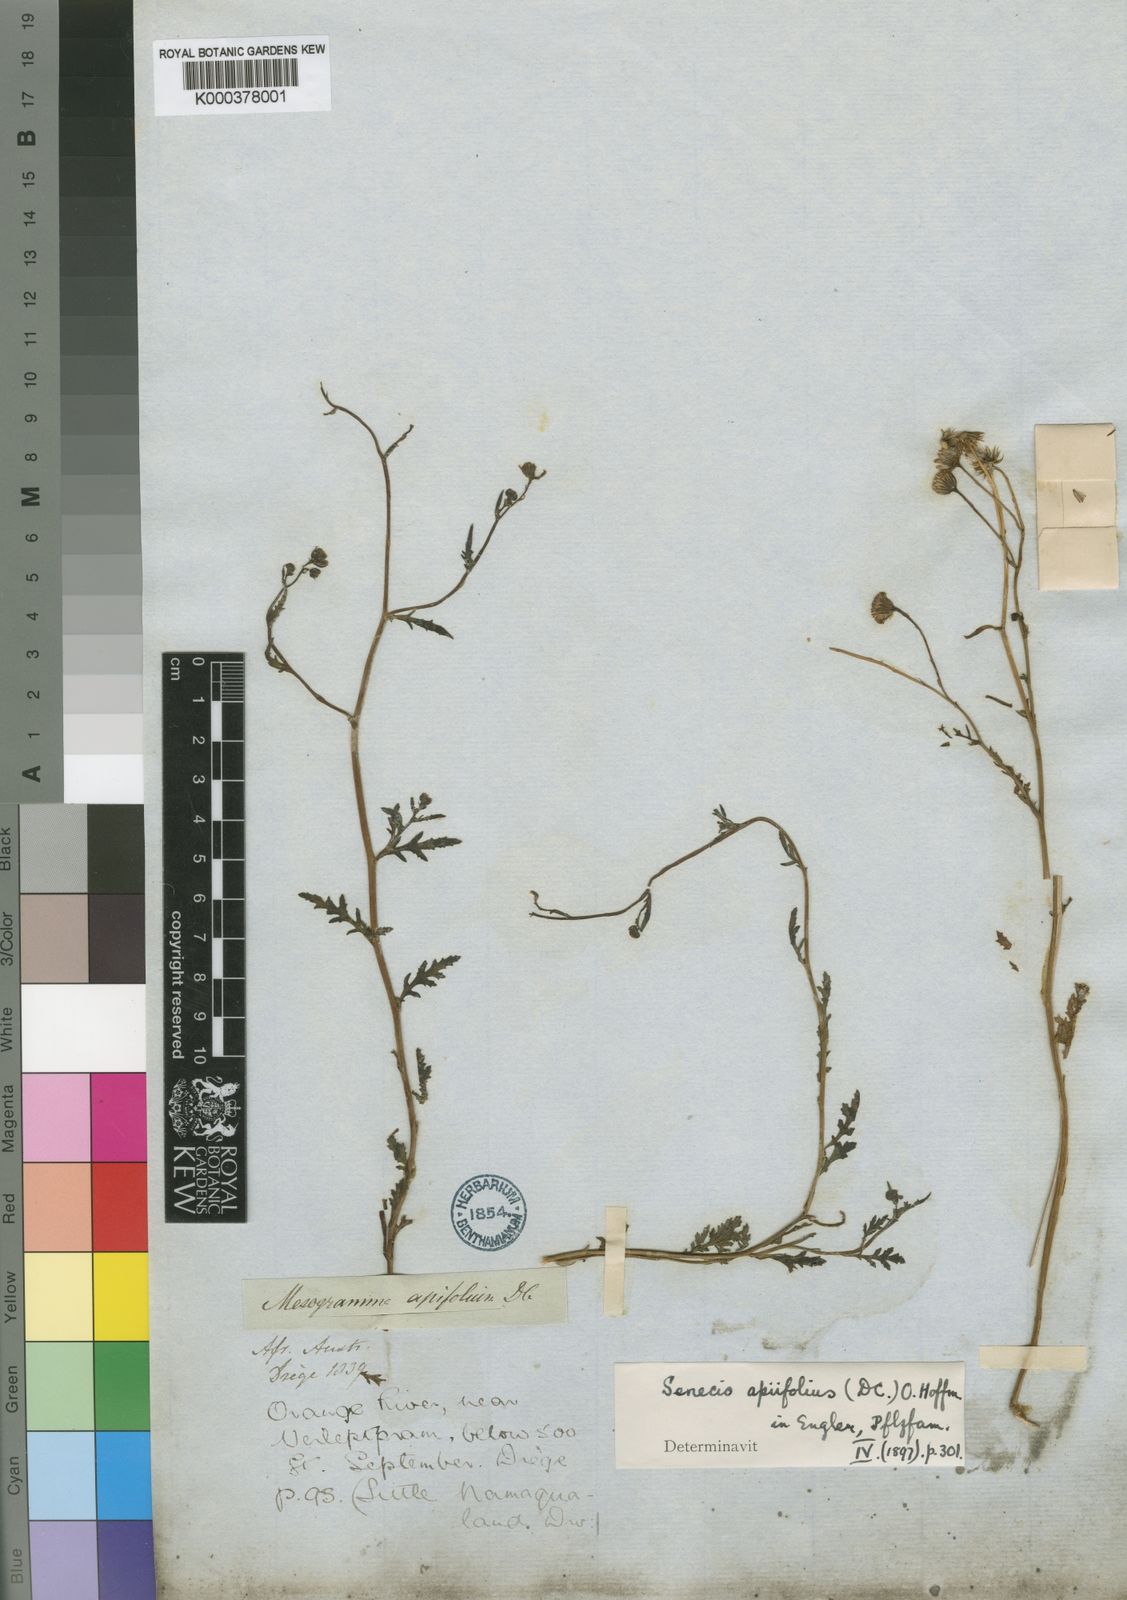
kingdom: Plantae
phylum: Tracheophyta
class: Magnoliopsida
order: Asterales
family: Asteraceae
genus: Senecio
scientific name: Senecio
